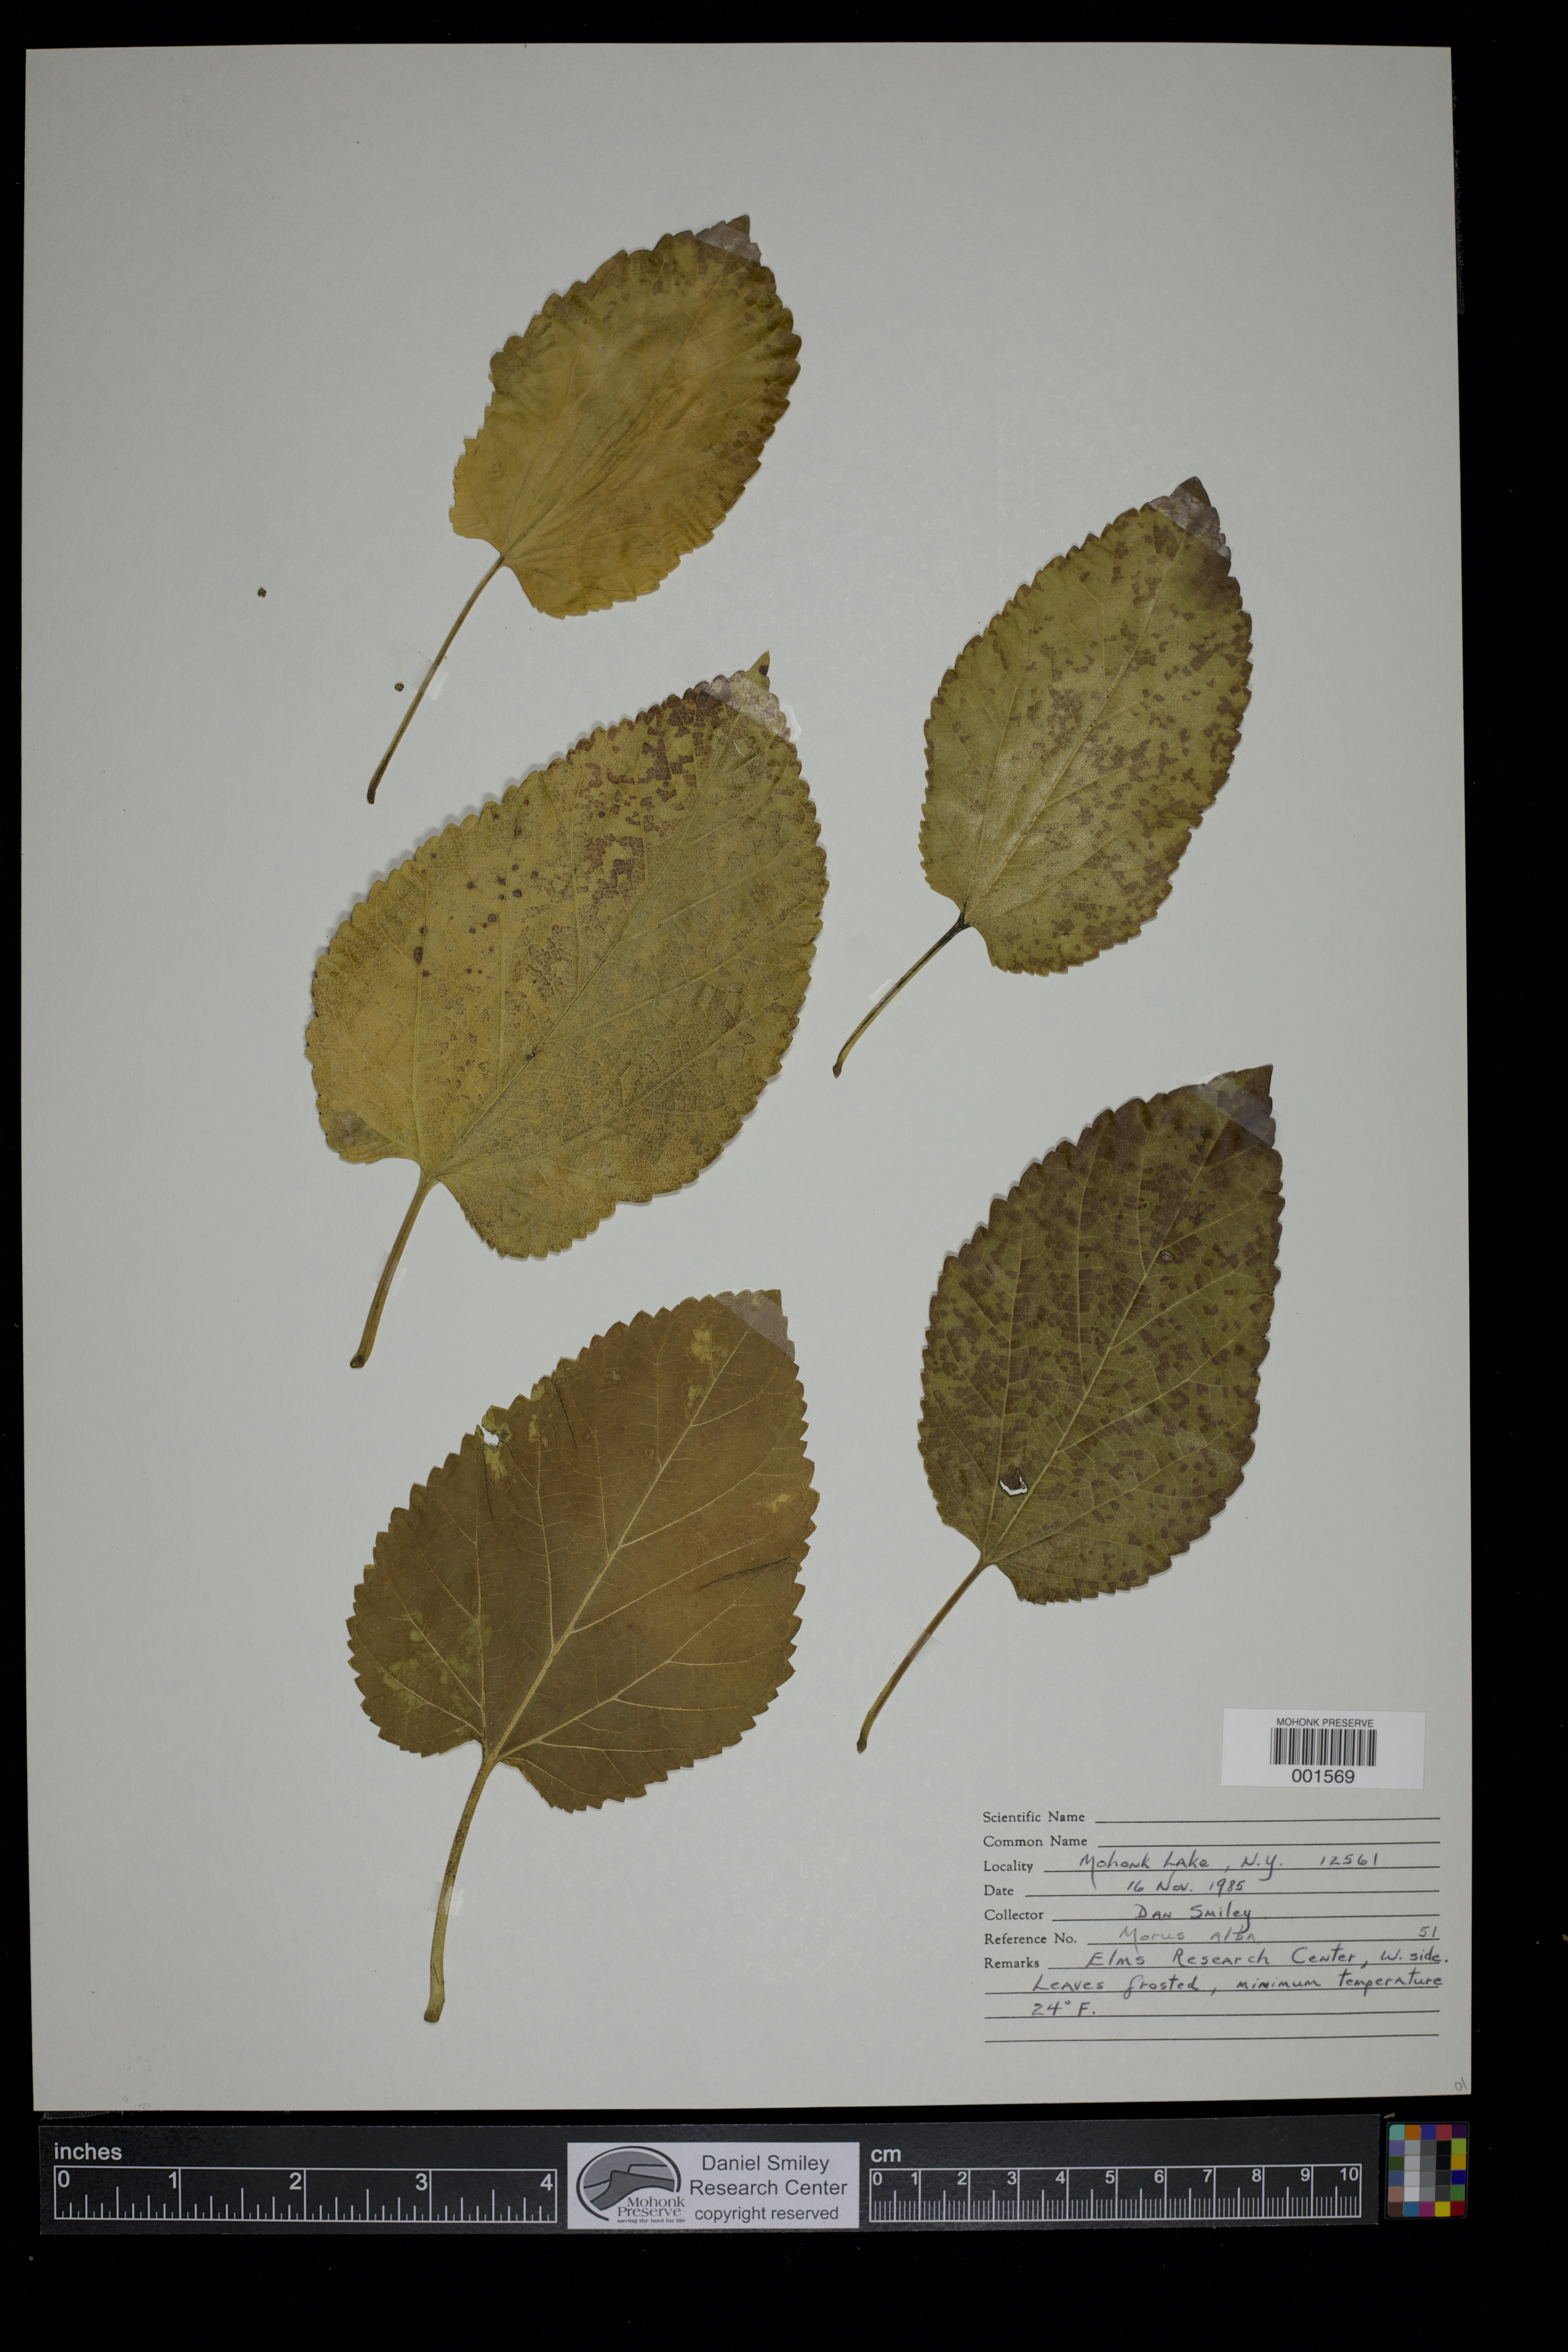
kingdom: Plantae
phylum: Tracheophyta
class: Magnoliopsida
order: Rosales
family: Moraceae
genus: Morus
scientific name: Morus alba
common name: White mulberry
